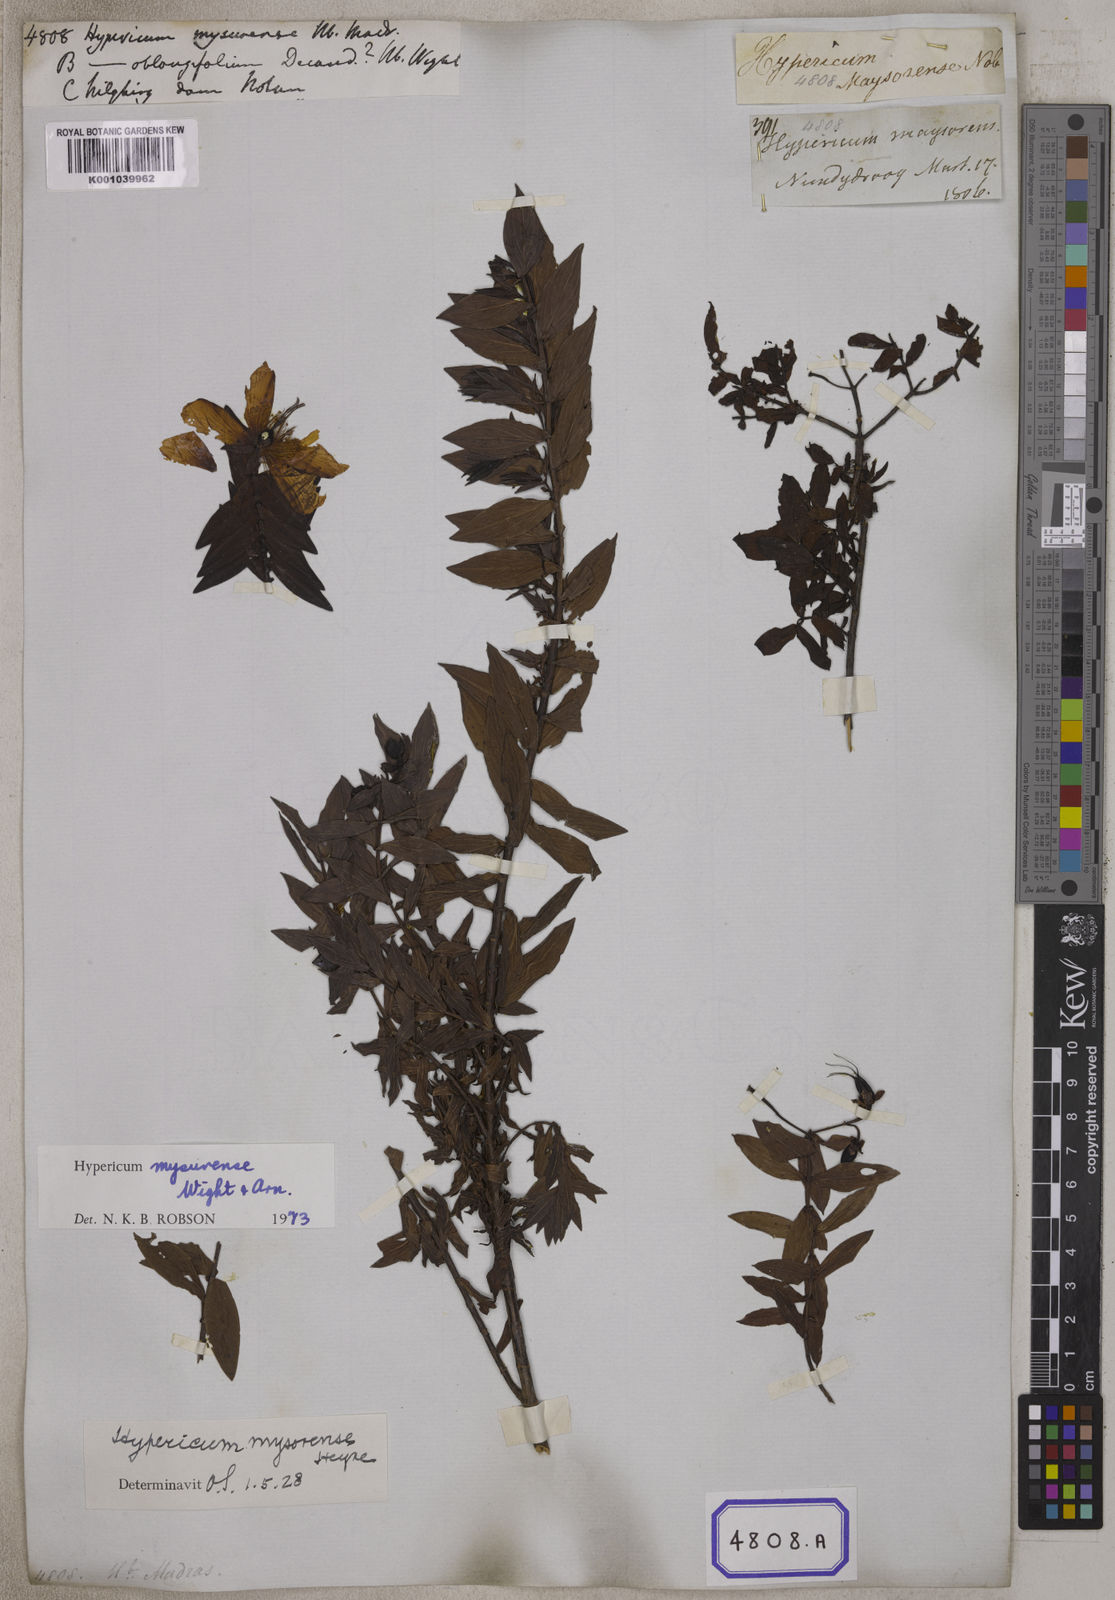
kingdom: Plantae
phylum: Tracheophyta
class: Magnoliopsida
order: Malpighiales
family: Hypericaceae
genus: Hypericum
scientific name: Hypericum
